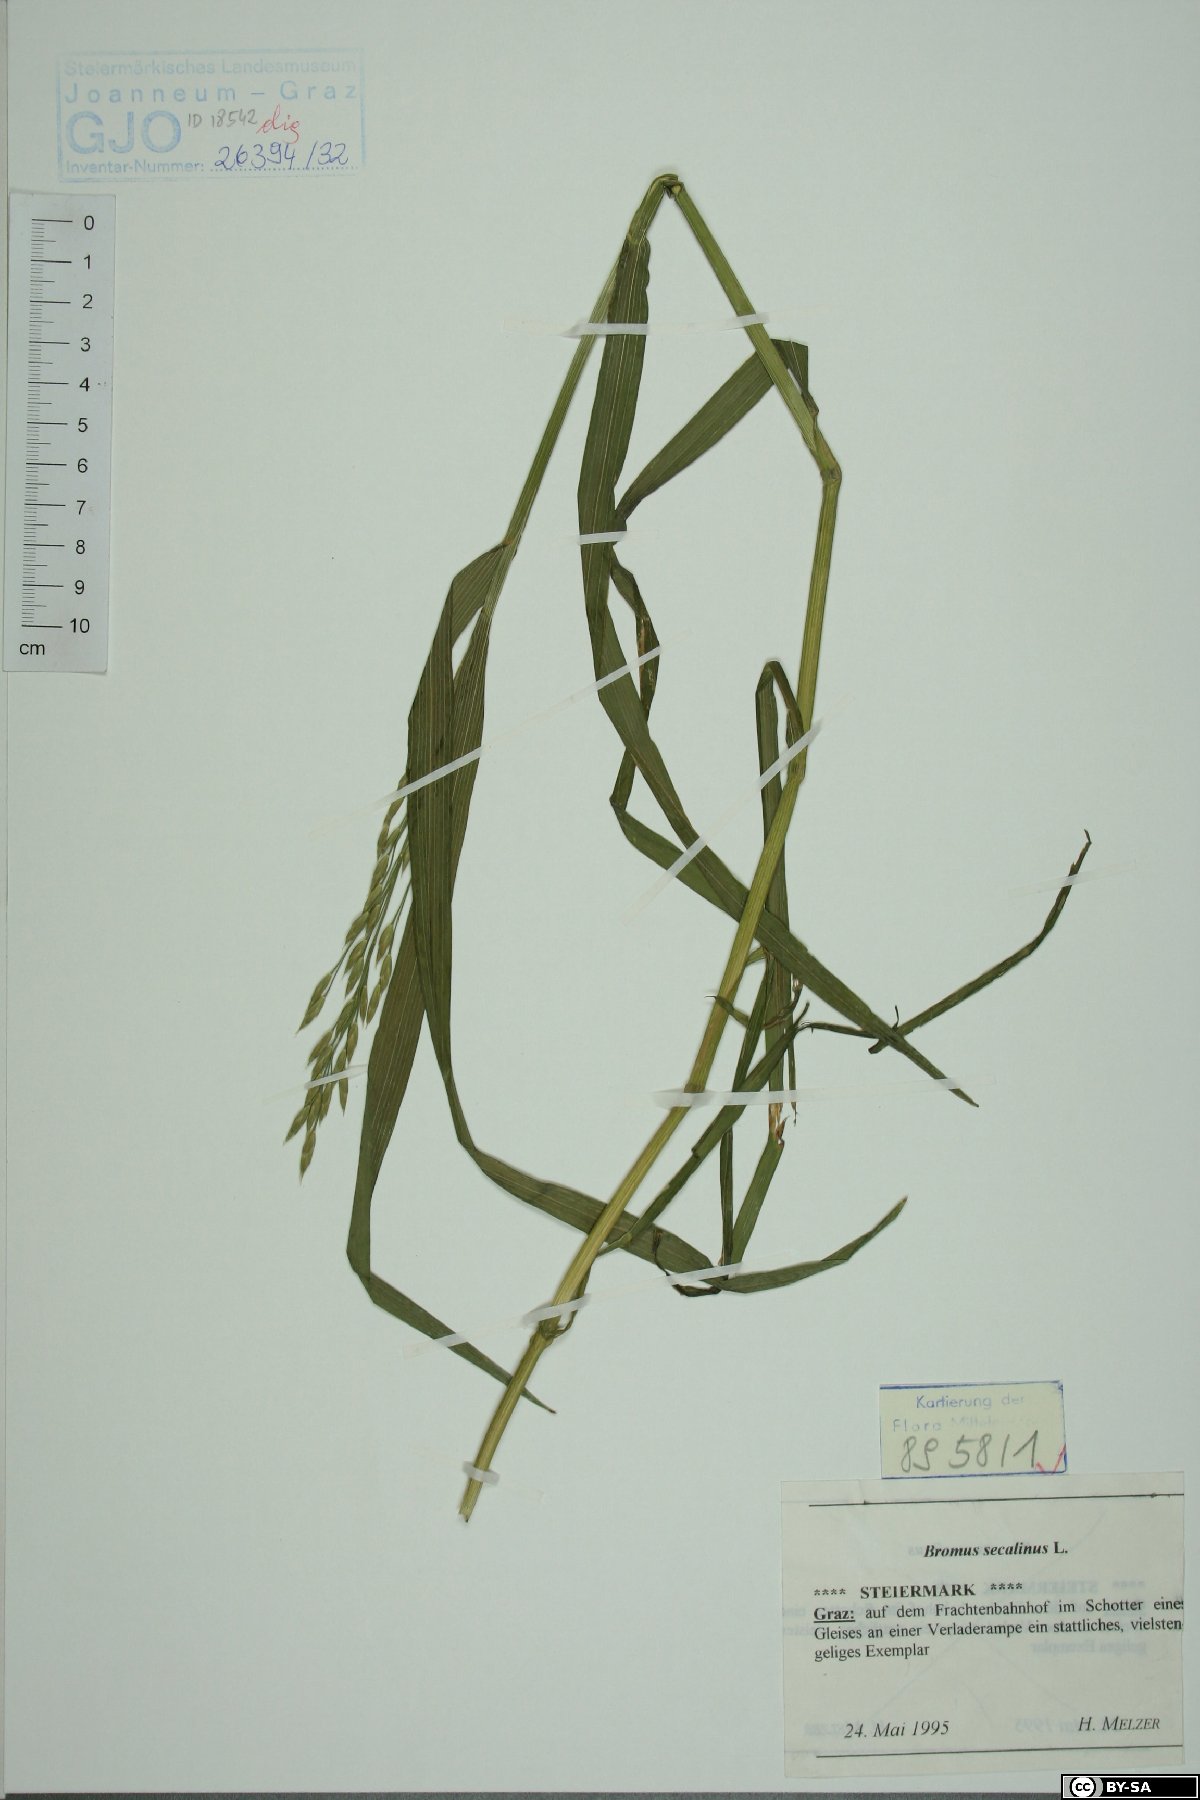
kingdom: Plantae
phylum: Tracheophyta
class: Liliopsida
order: Poales
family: Poaceae
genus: Bromus
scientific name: Bromus secalinus
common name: Rye brome
